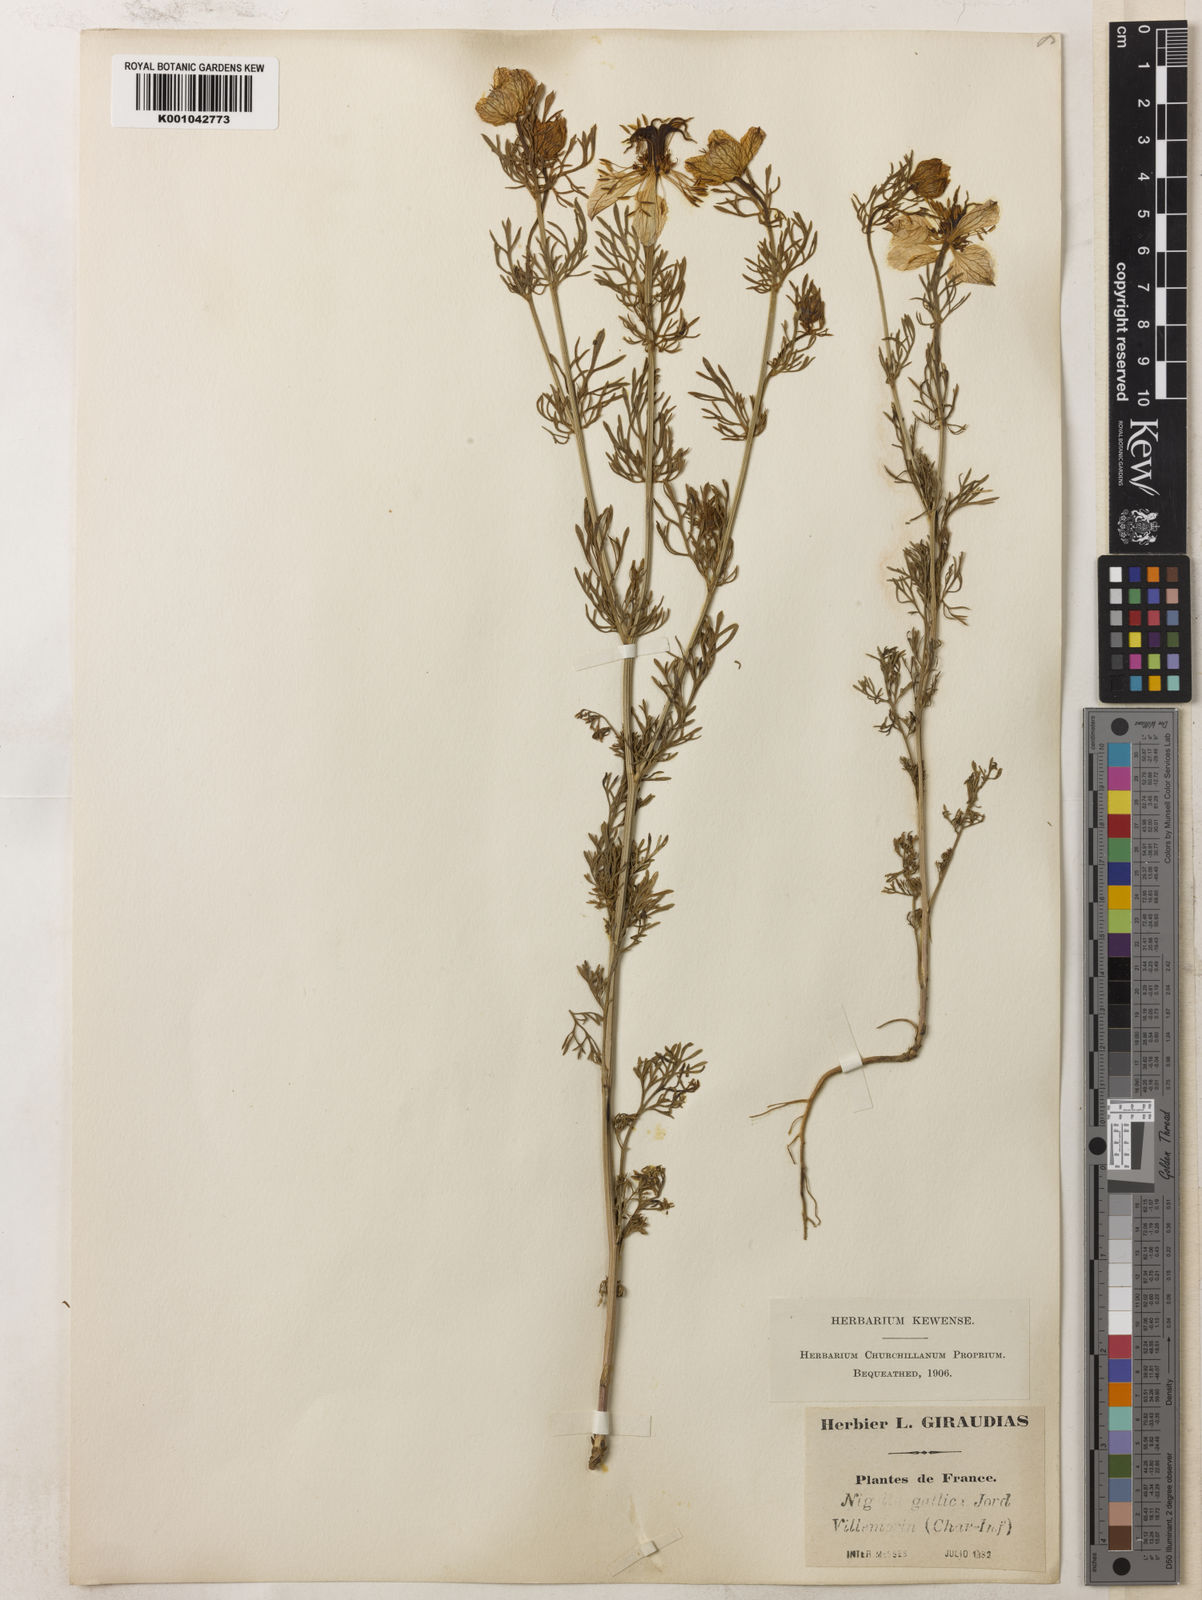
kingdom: Plantae
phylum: Tracheophyta
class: Magnoliopsida
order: Ranunculales
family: Ranunculaceae
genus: Nigella
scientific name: Nigella hispanica
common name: Fennel-flower
